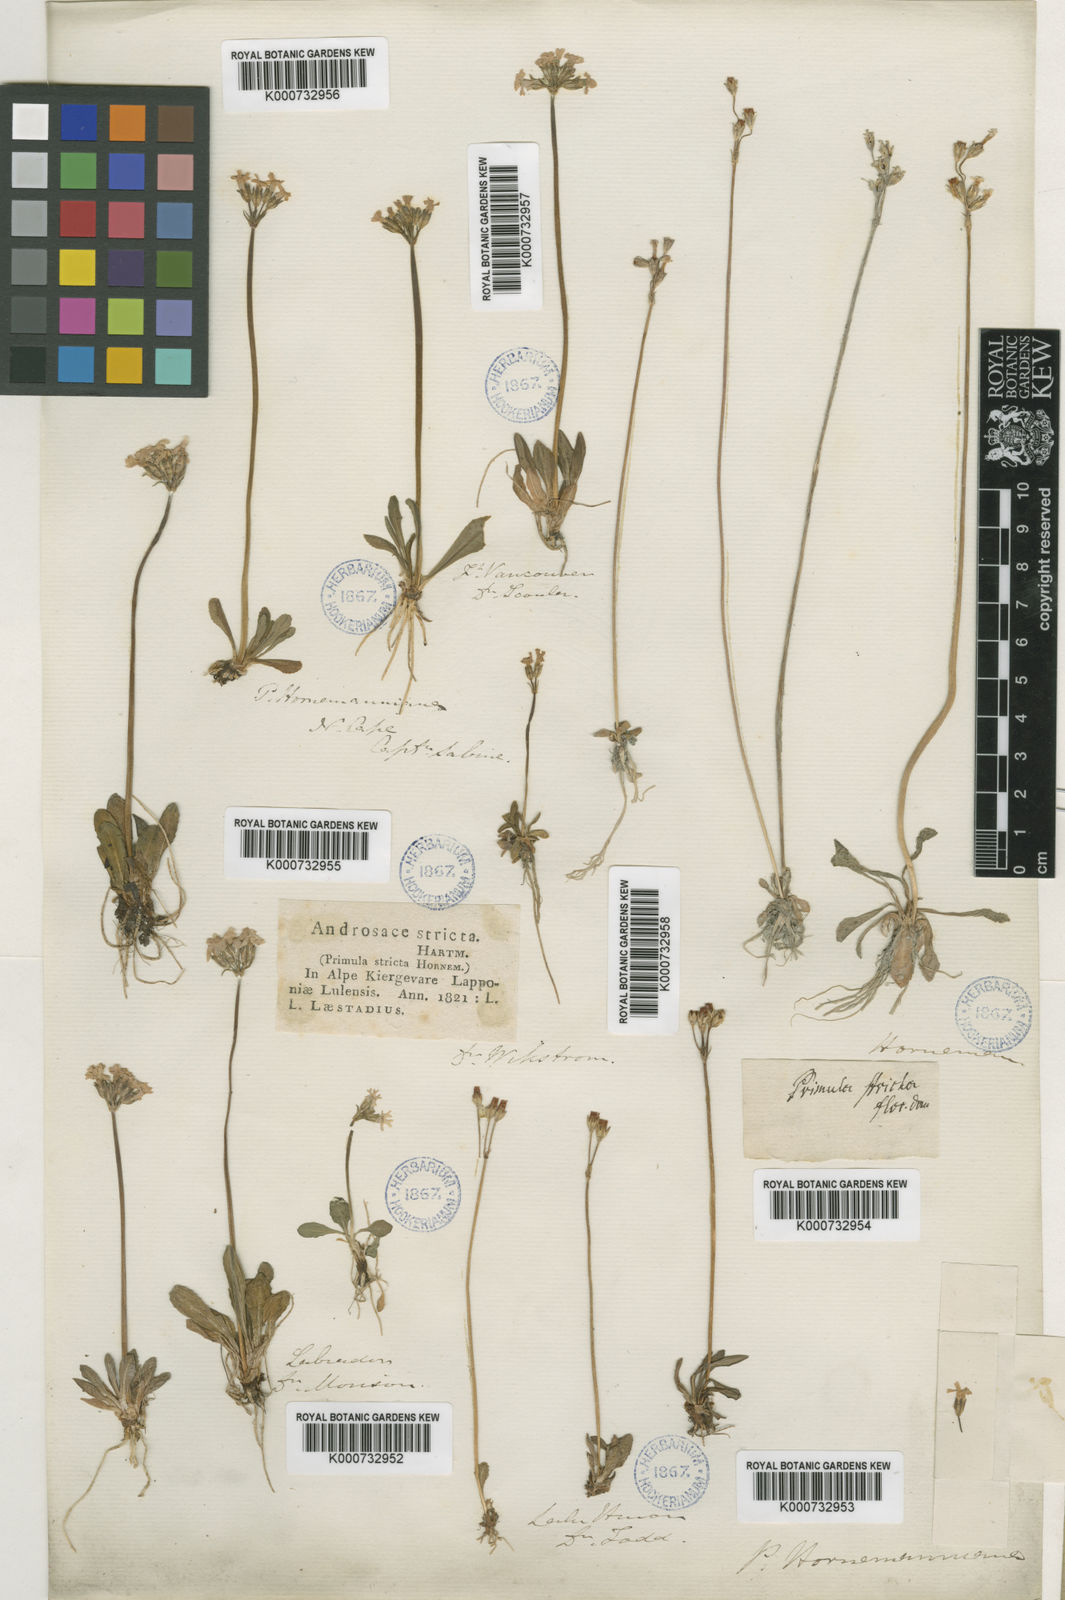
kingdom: Plantae
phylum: Tracheophyta
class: Magnoliopsida
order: Ericales
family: Primulaceae
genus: Primula
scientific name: Primula stricta
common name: Coastal primrose
